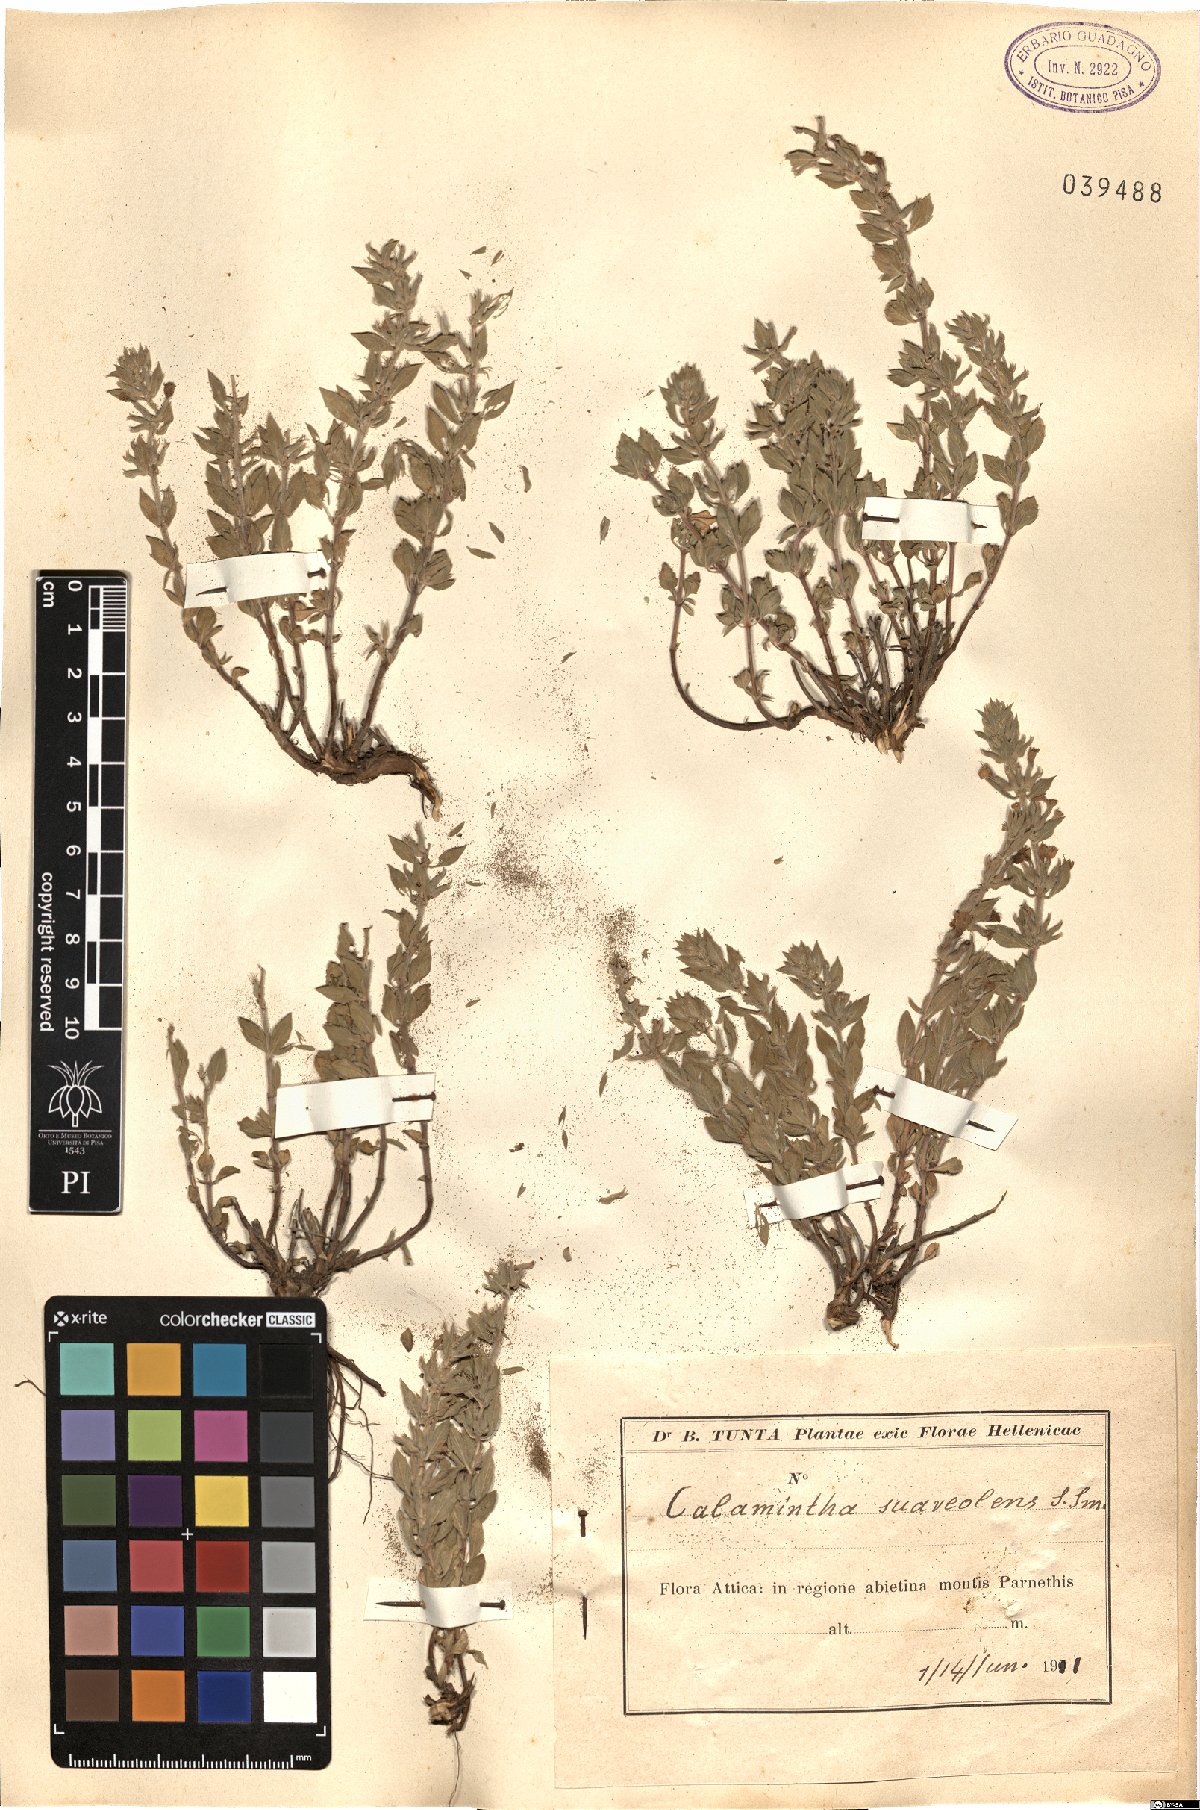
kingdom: Plantae
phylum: Tracheophyta
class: Magnoliopsida
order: Lamiales
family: Lamiaceae
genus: Clinopodium
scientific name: Clinopodium suaveolens
